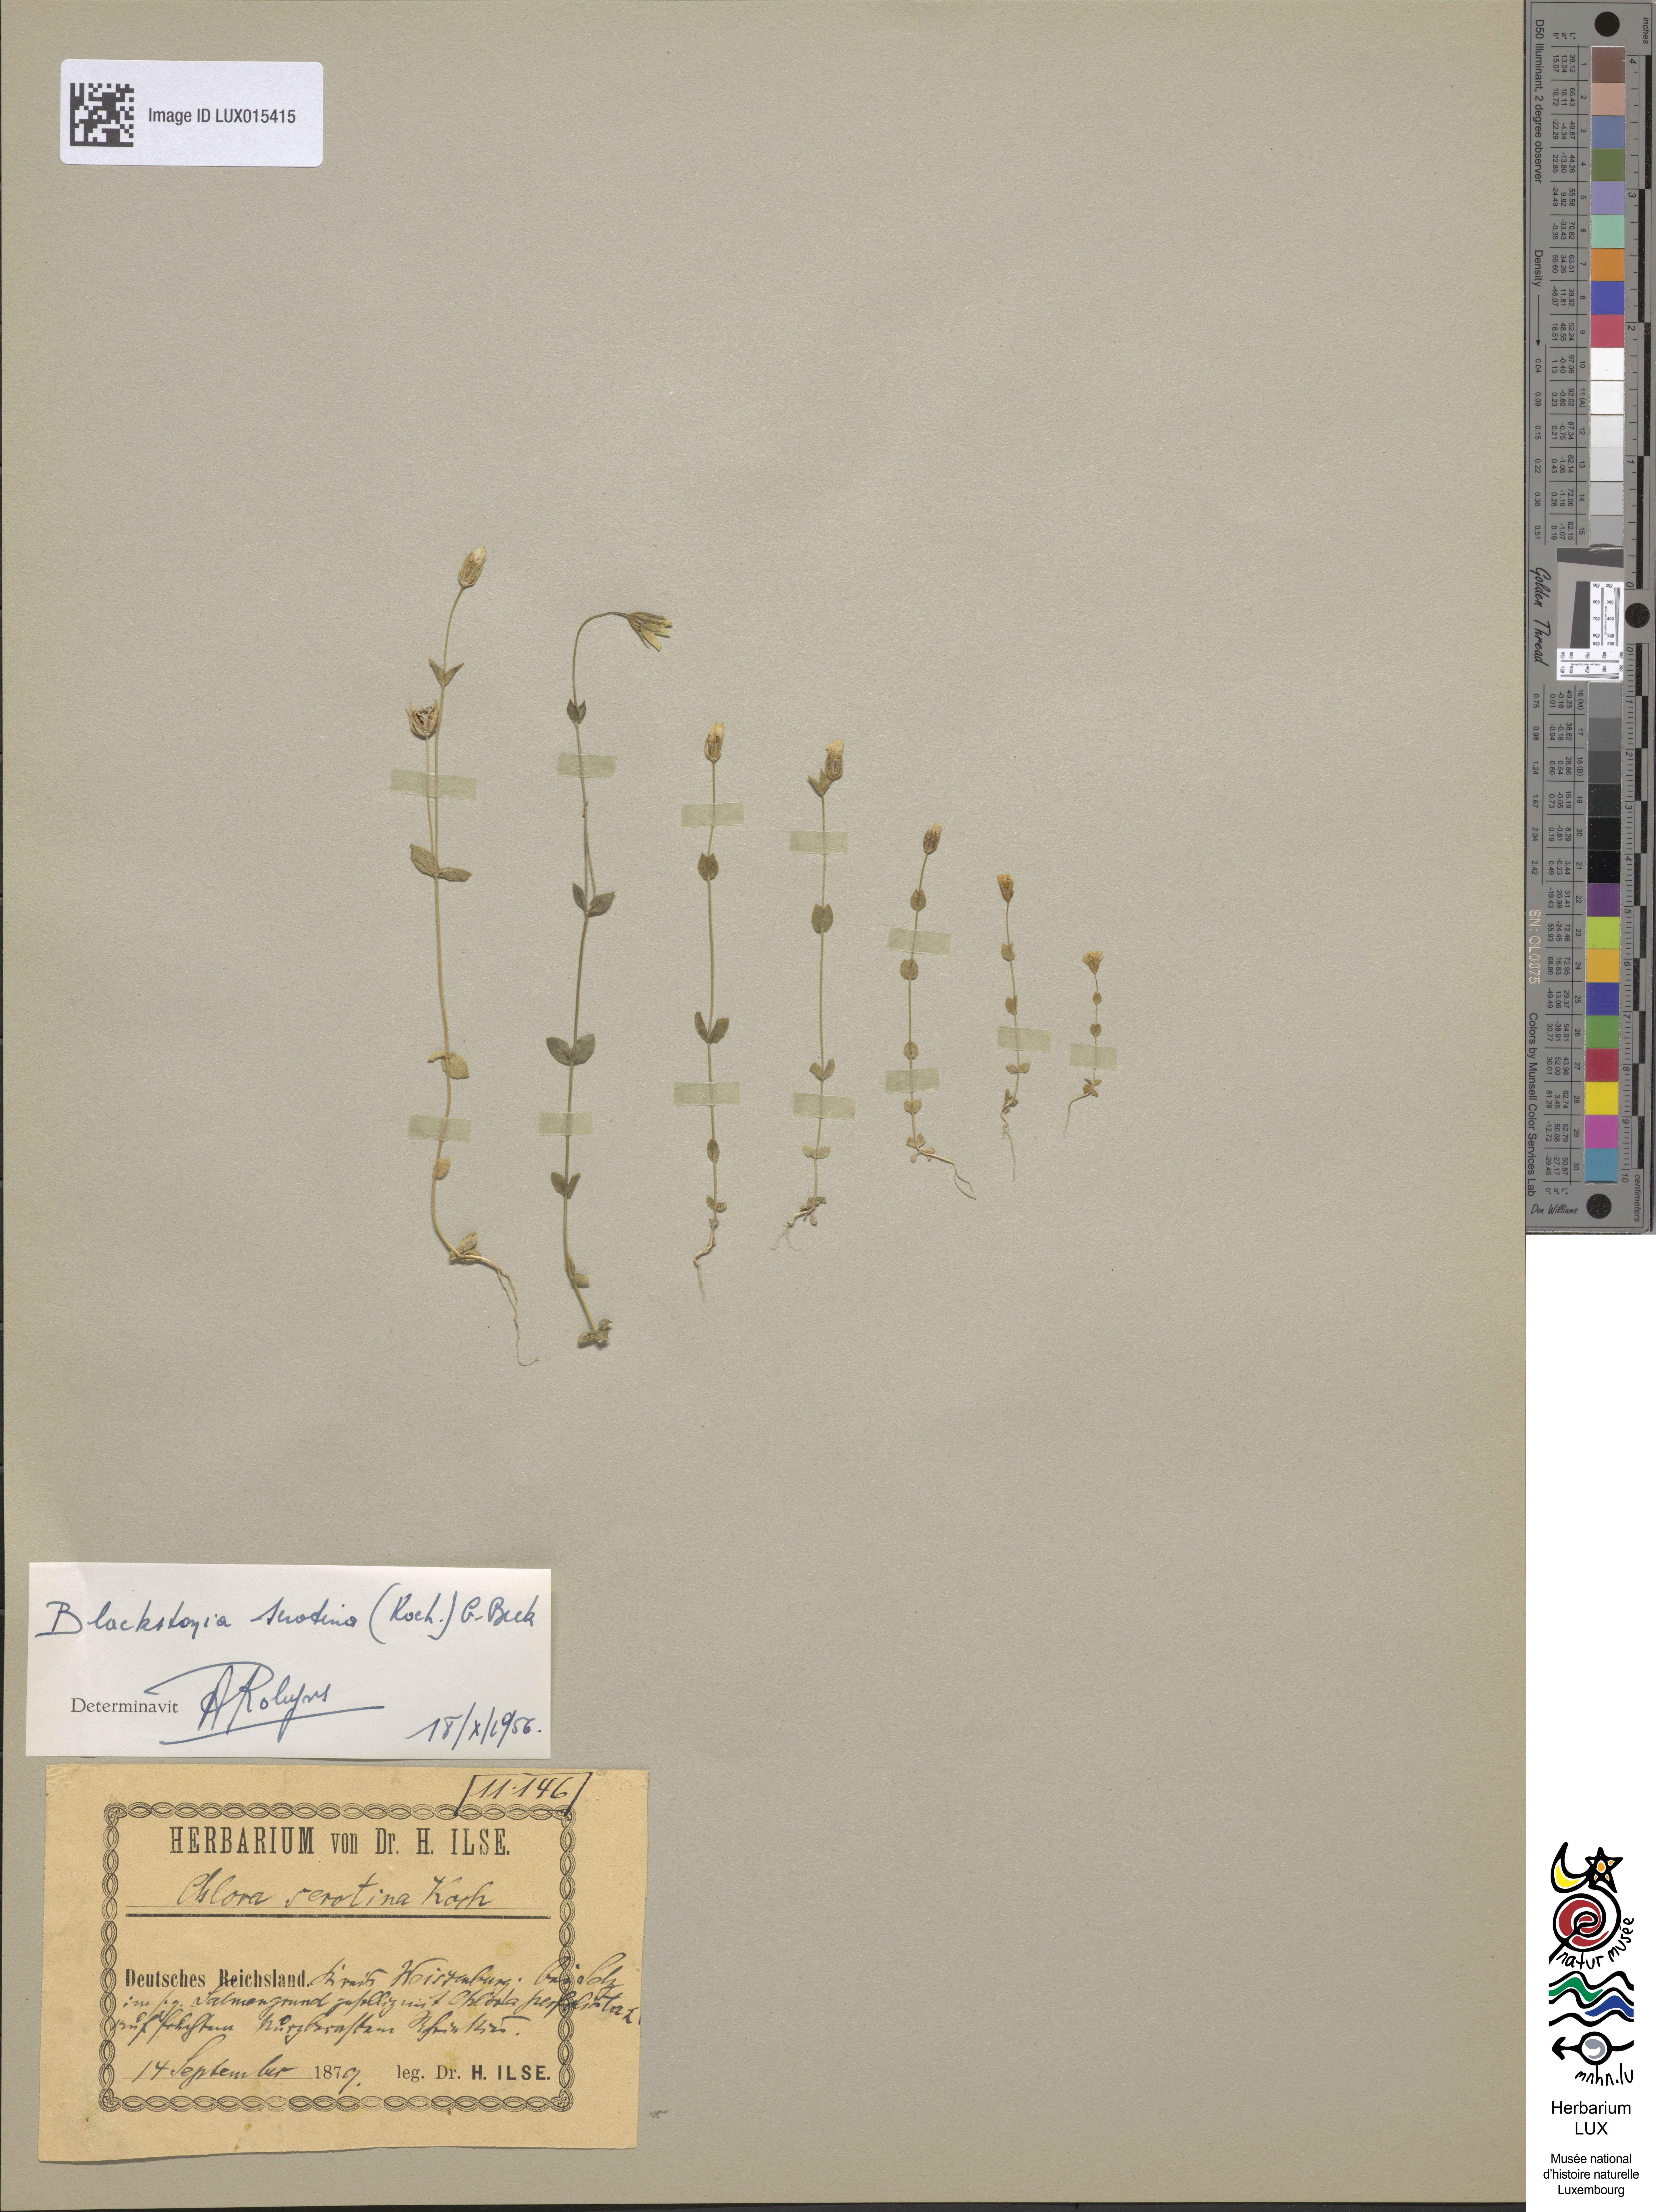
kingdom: Plantae
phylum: Tracheophyta
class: Magnoliopsida
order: Gentianales
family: Gentianaceae
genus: Blackstonia
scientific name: Blackstonia perfoliata
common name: Yellow-wort
